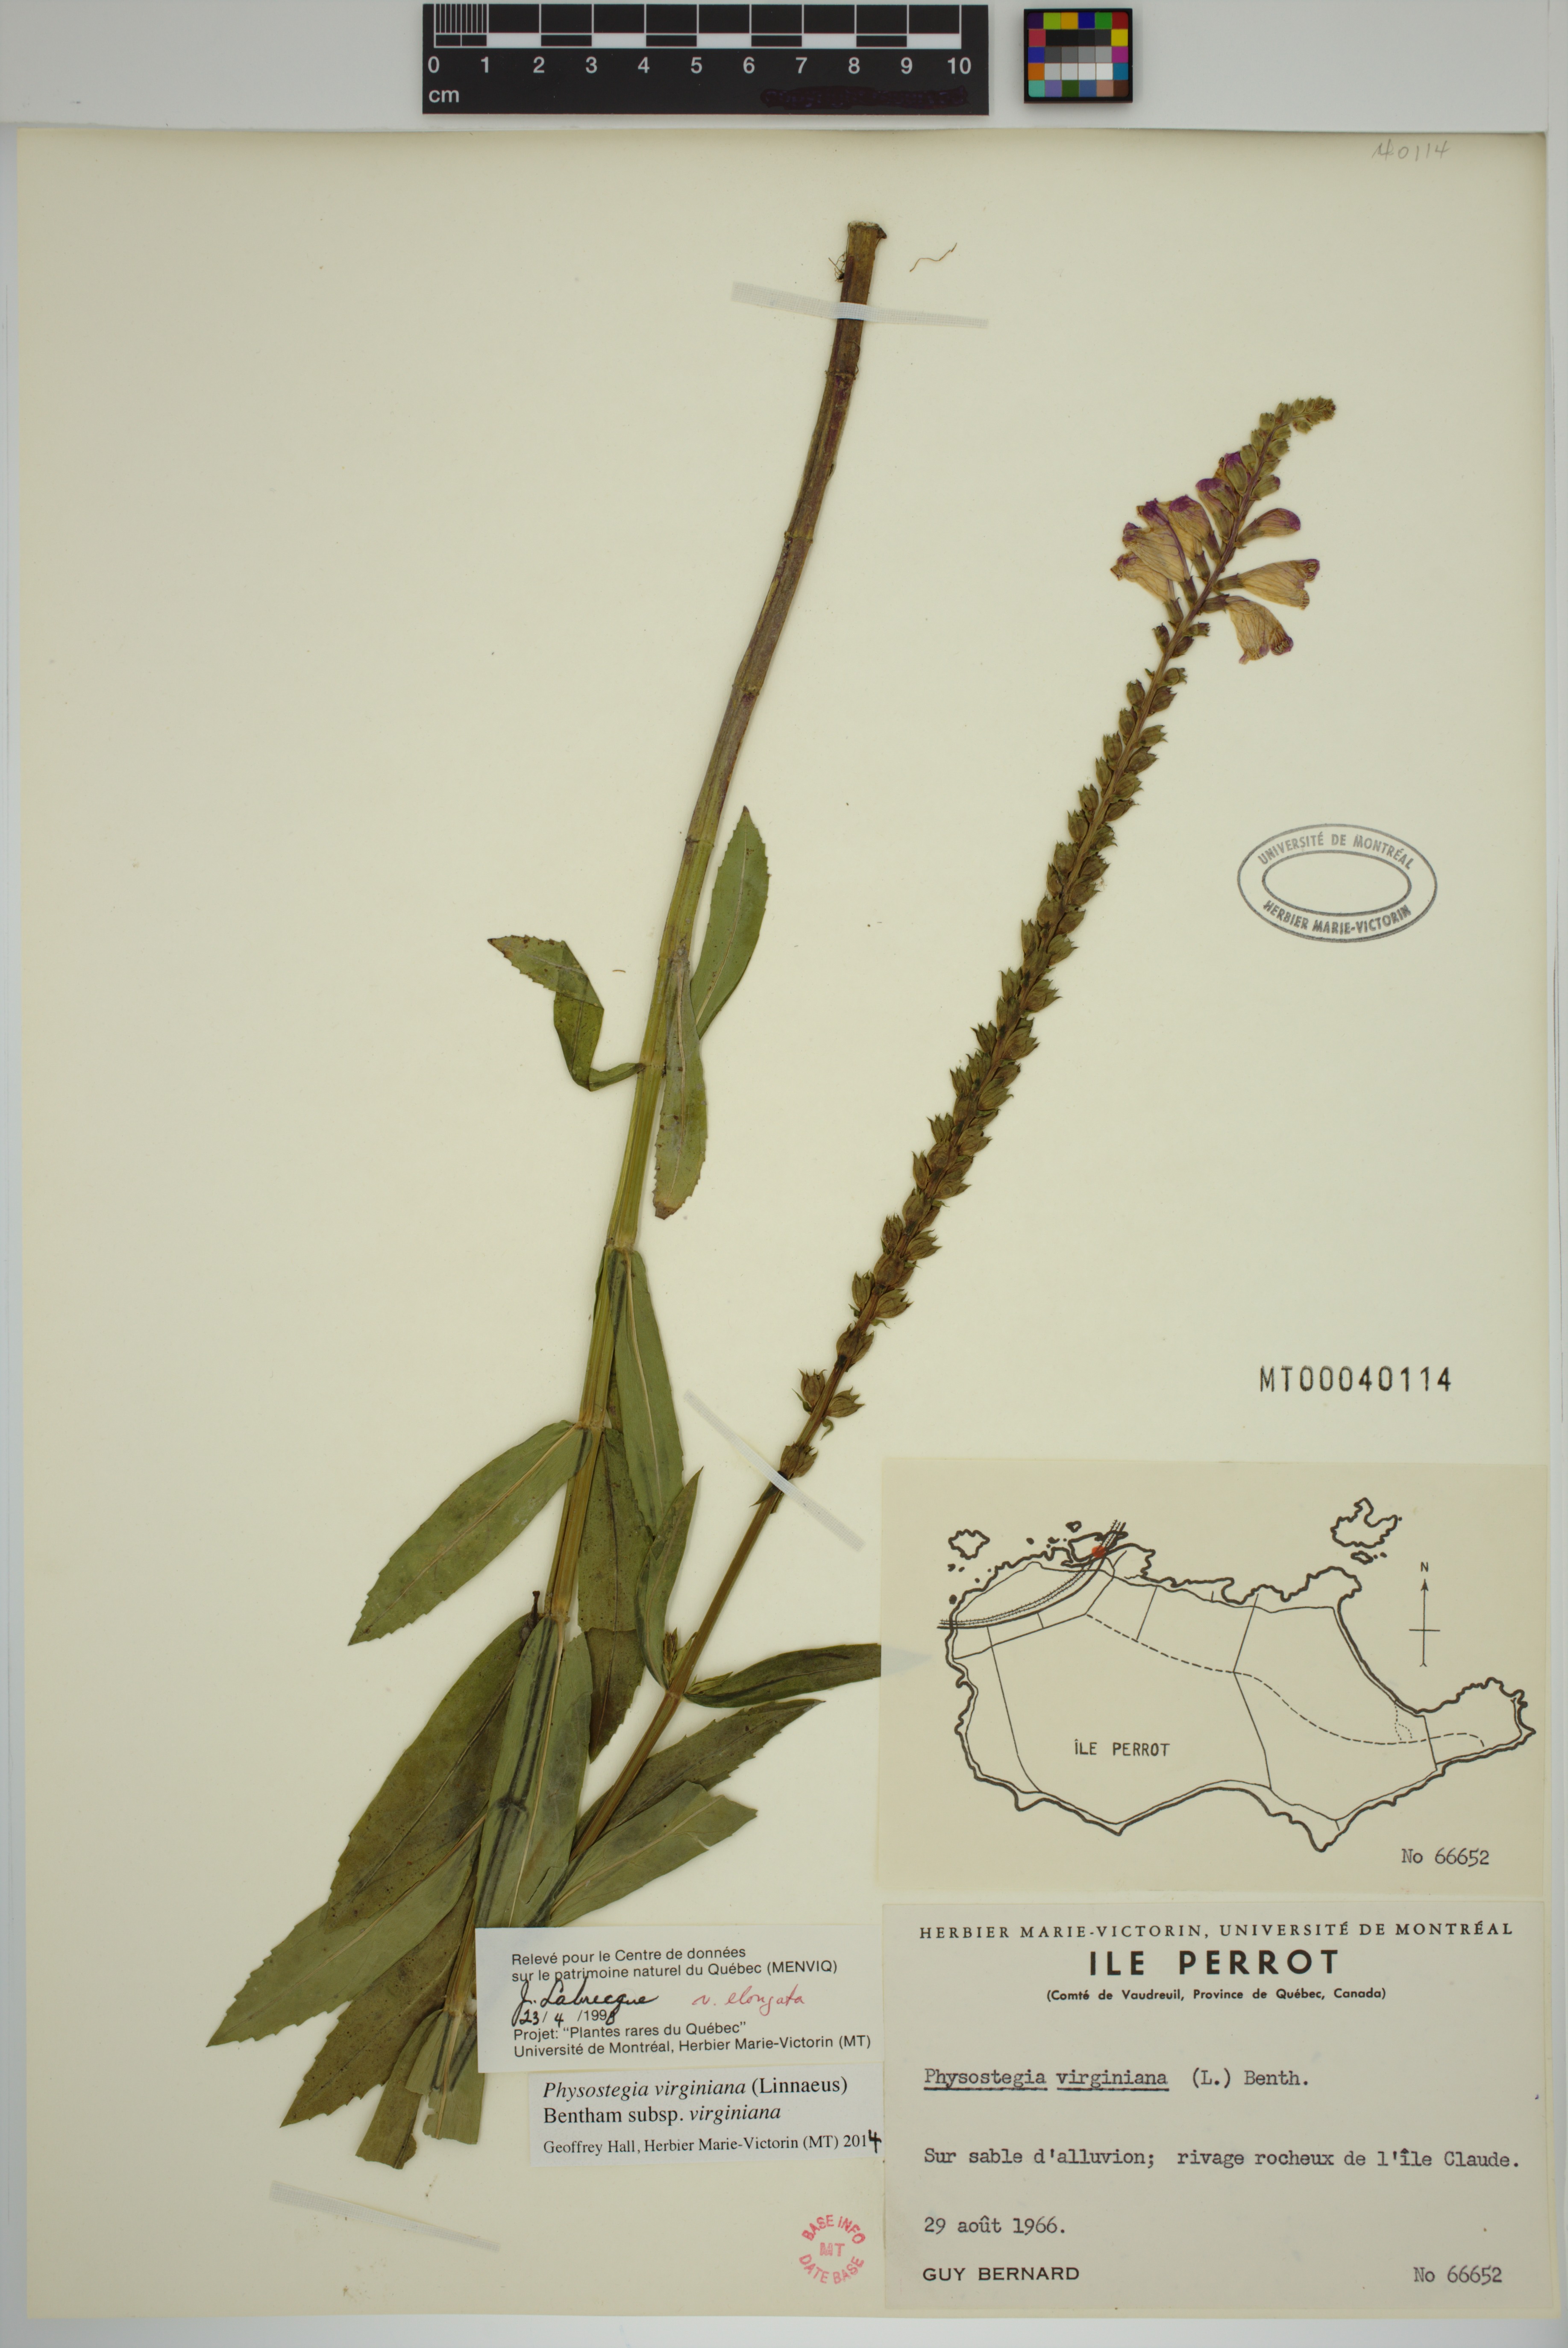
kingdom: Plantae
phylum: Tracheophyta
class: Magnoliopsida
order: Lamiales
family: Lamiaceae
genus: Physostegia
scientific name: Physostegia virginiana
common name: Obedient-plant
